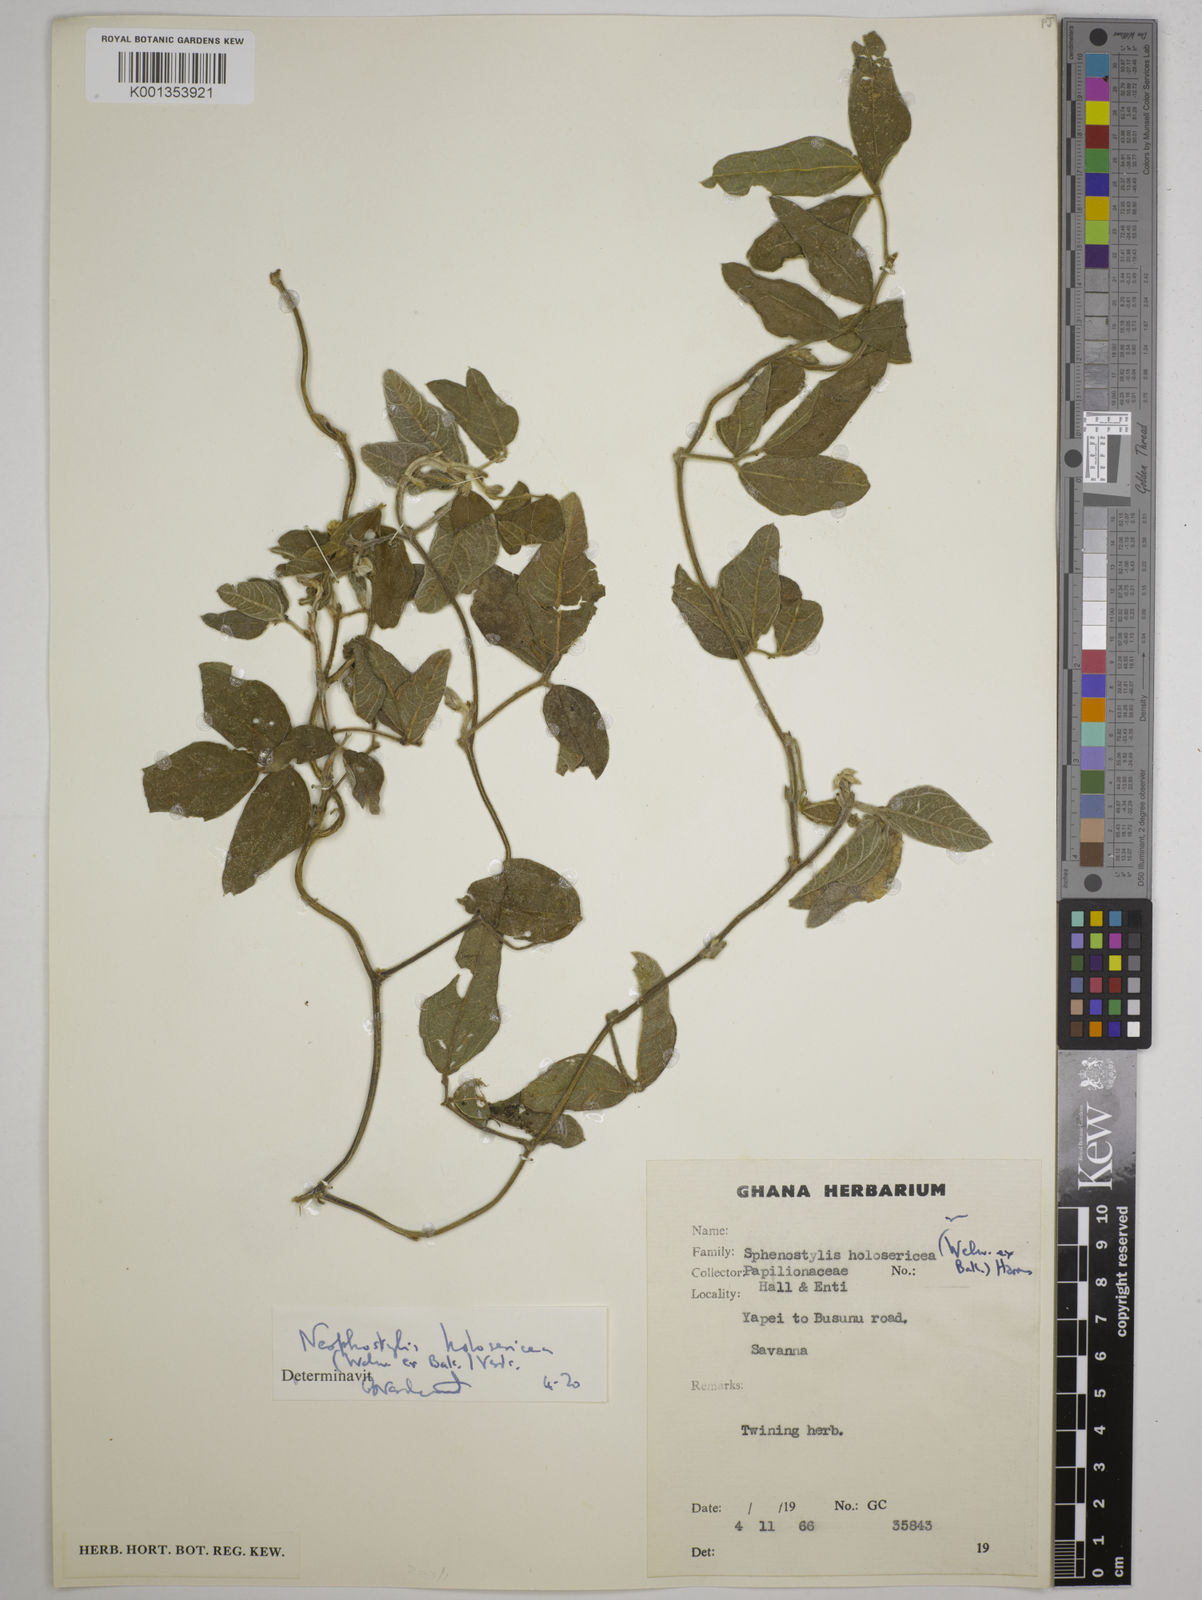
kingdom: Plantae
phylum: Tracheophyta
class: Magnoliopsida
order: Fabales
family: Fabaceae
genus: Nesphostylis
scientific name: Nesphostylis holosericea
